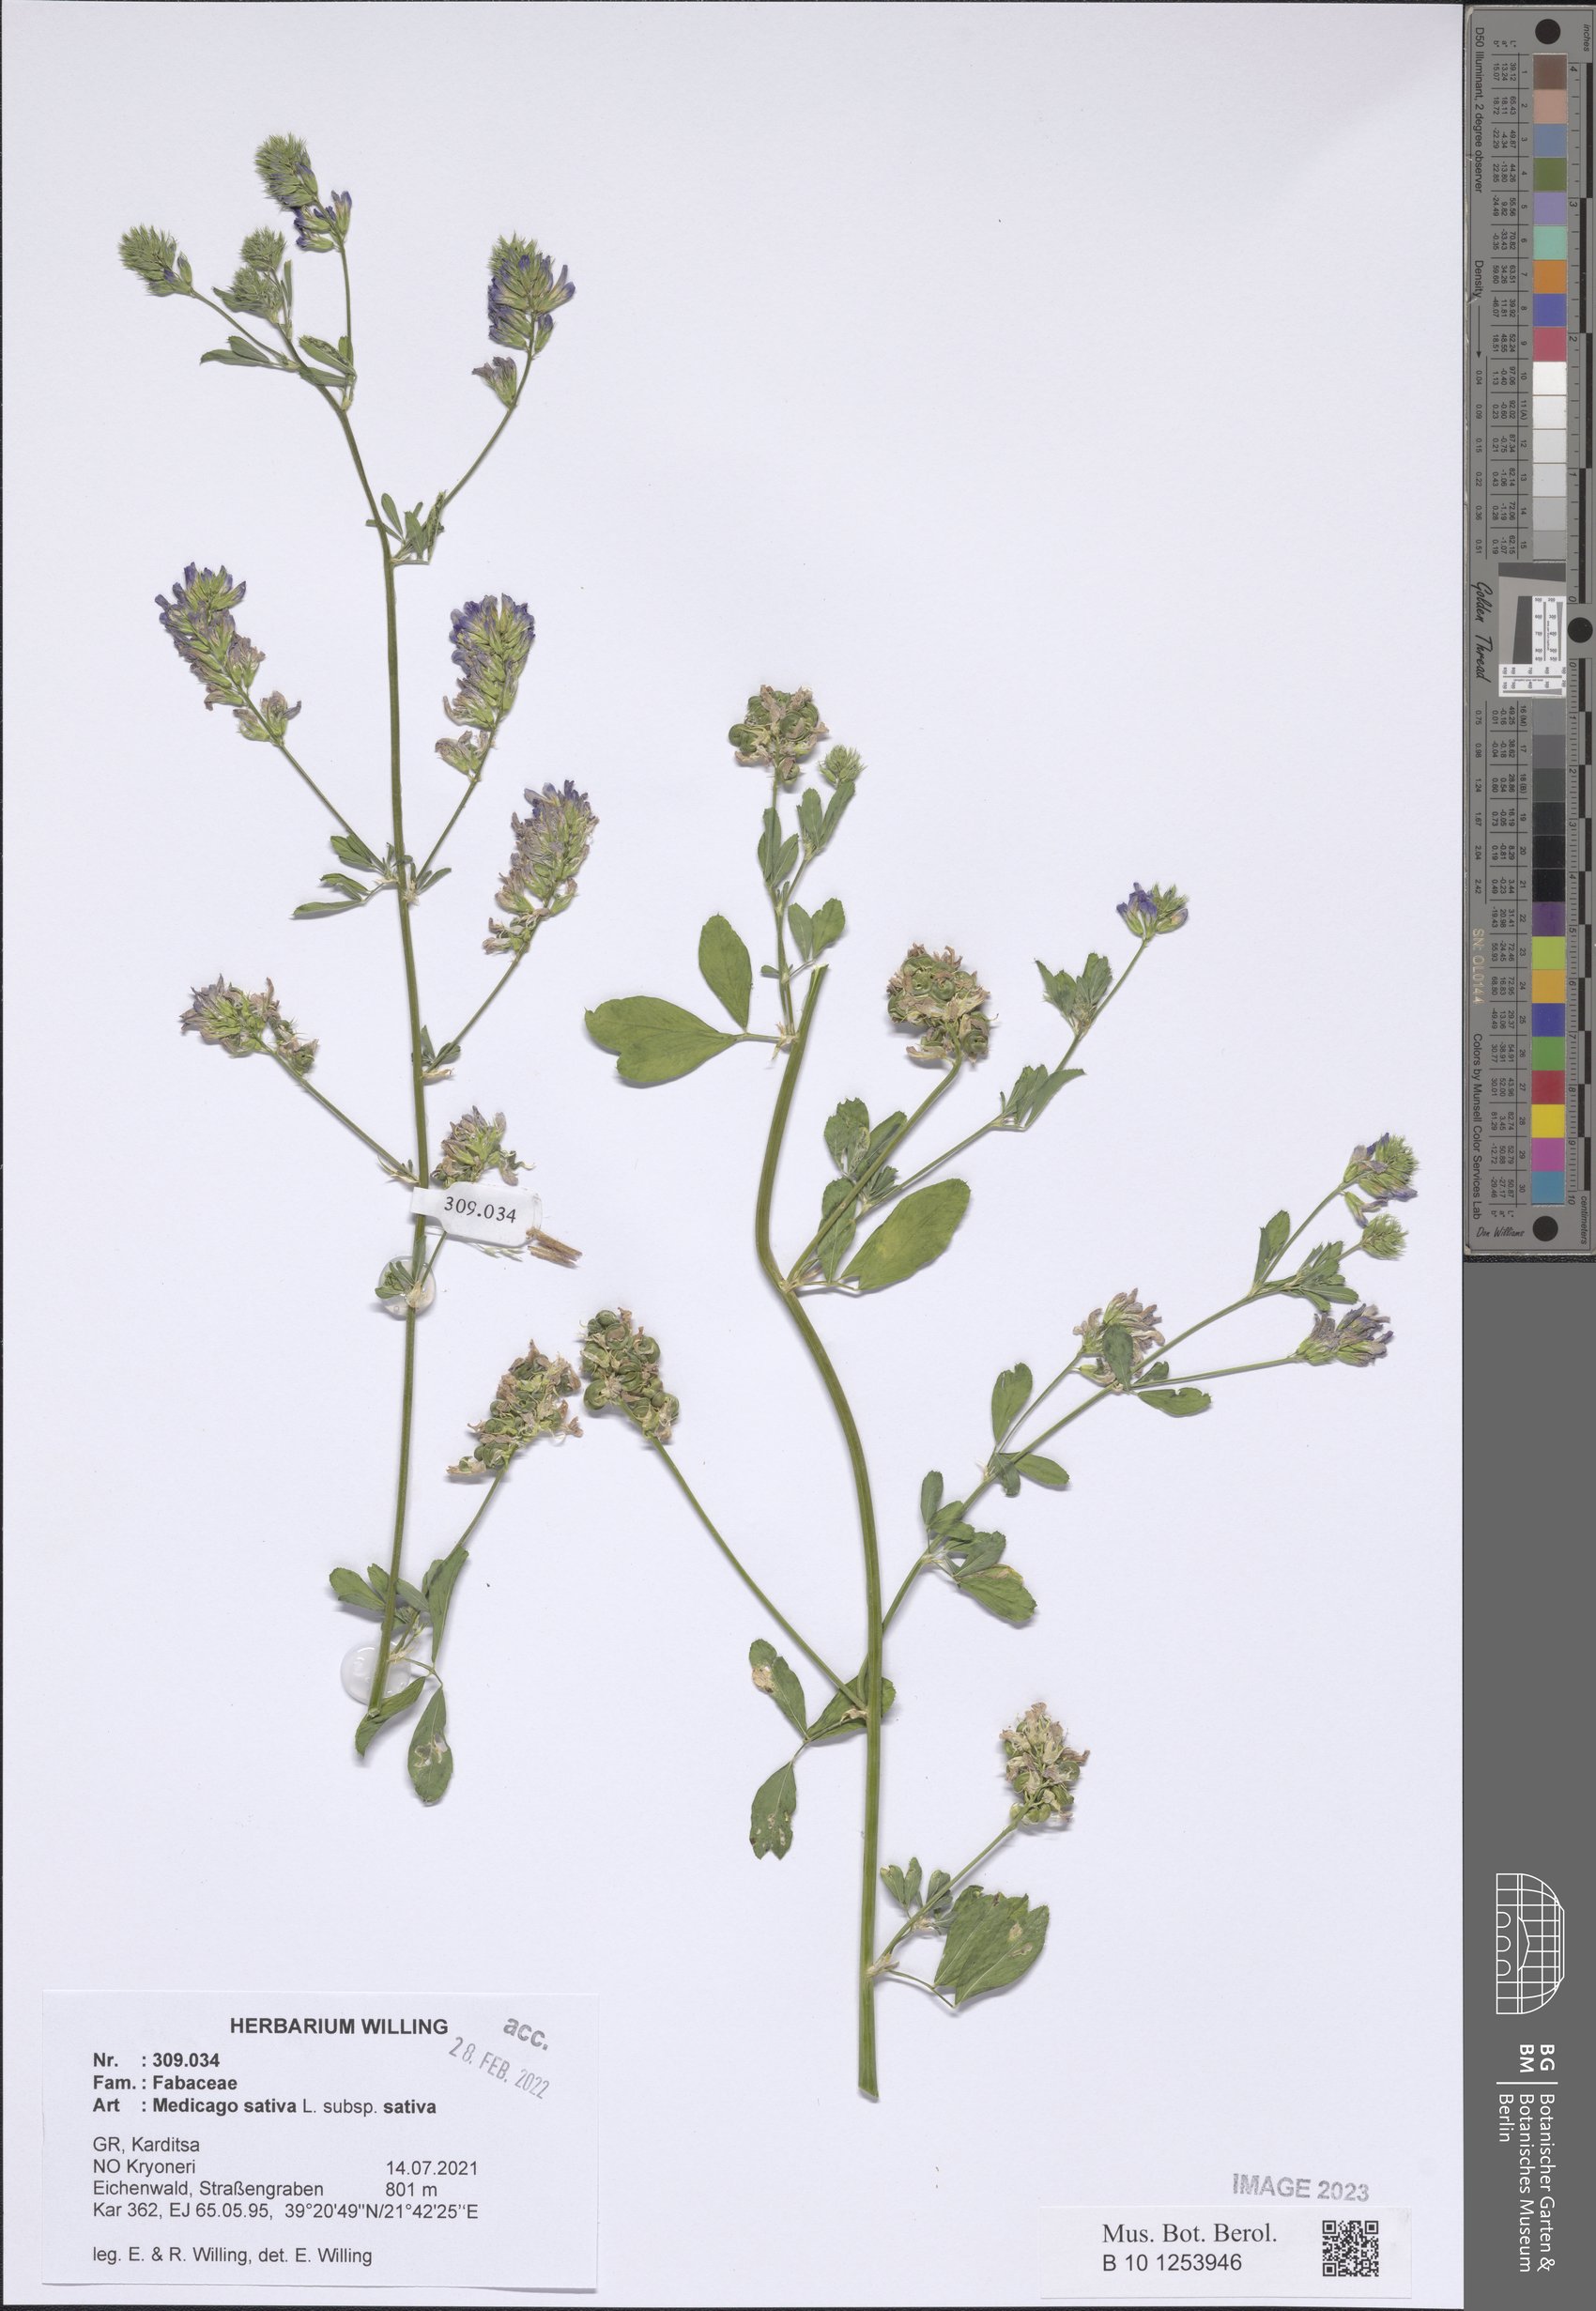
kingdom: Plantae
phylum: Tracheophyta
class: Magnoliopsida
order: Fabales
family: Fabaceae
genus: Medicago
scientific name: Medicago sativa
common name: Alfalfa
